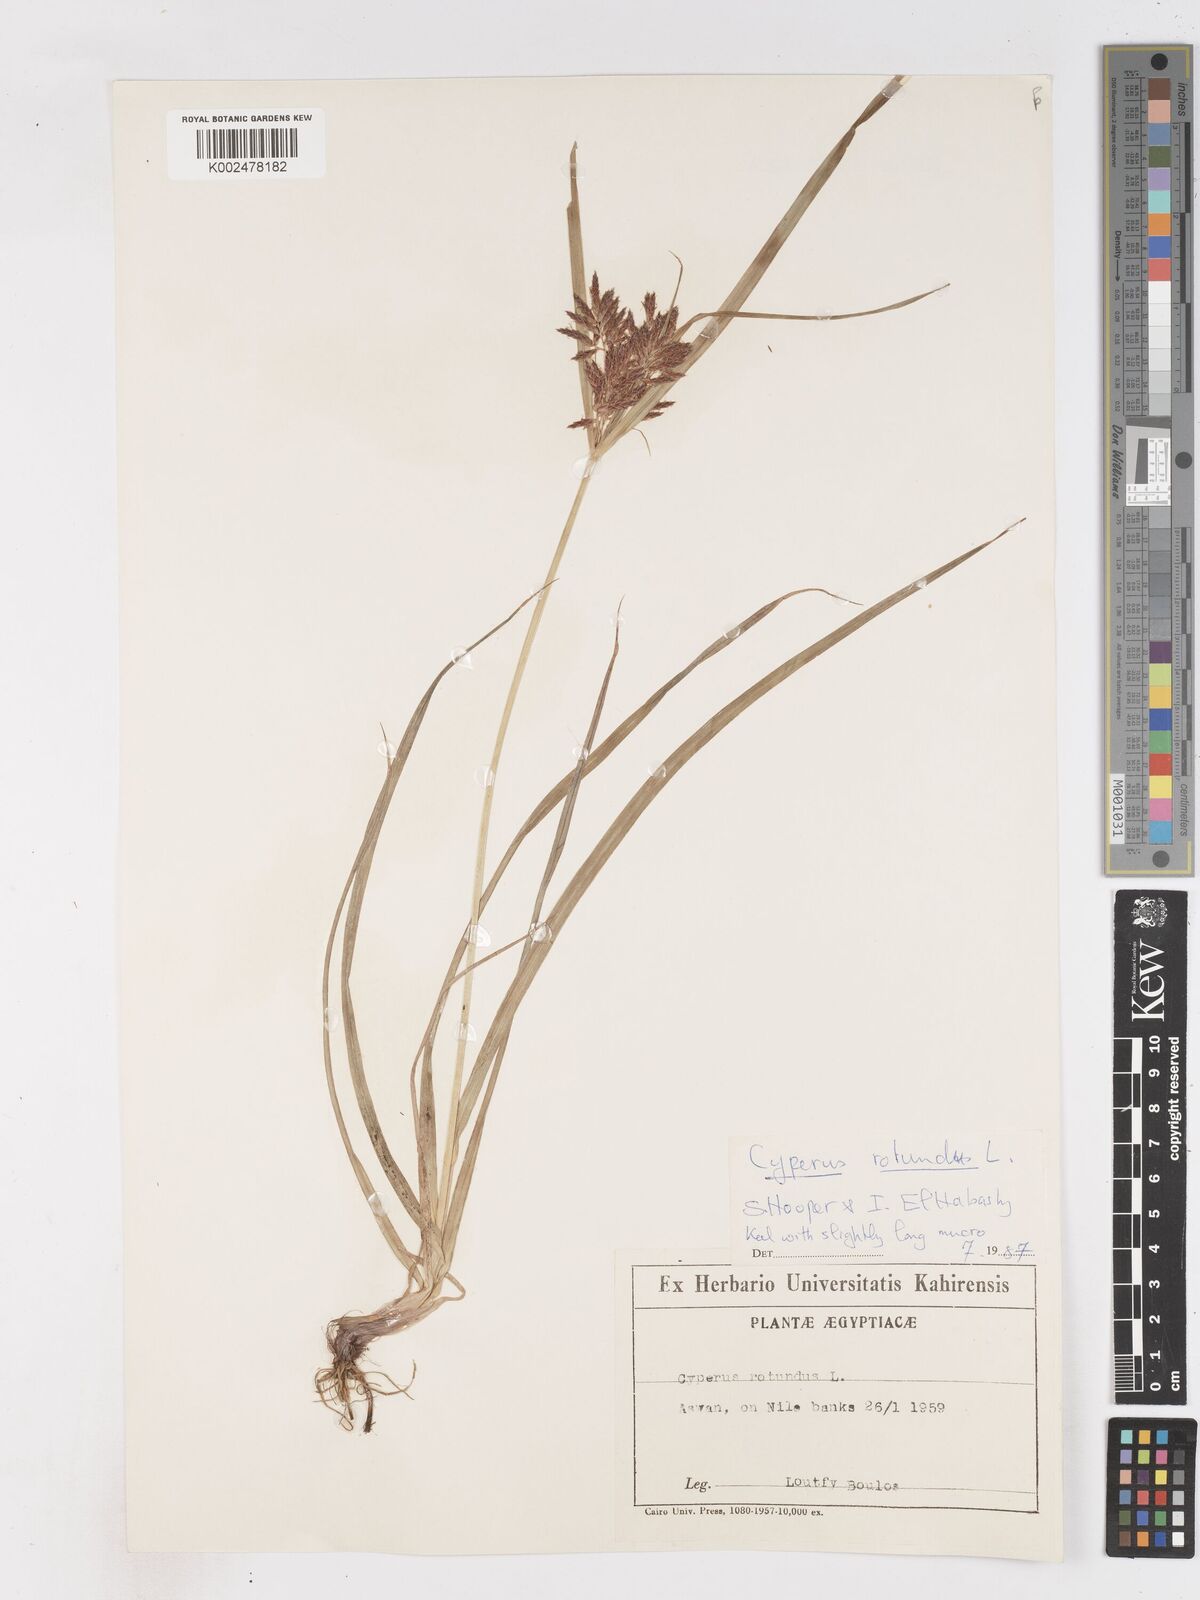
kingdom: Plantae
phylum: Tracheophyta
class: Liliopsida
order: Poales
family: Cyperaceae
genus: Cyperus
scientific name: Cyperus rotundus
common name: Nutgrass
